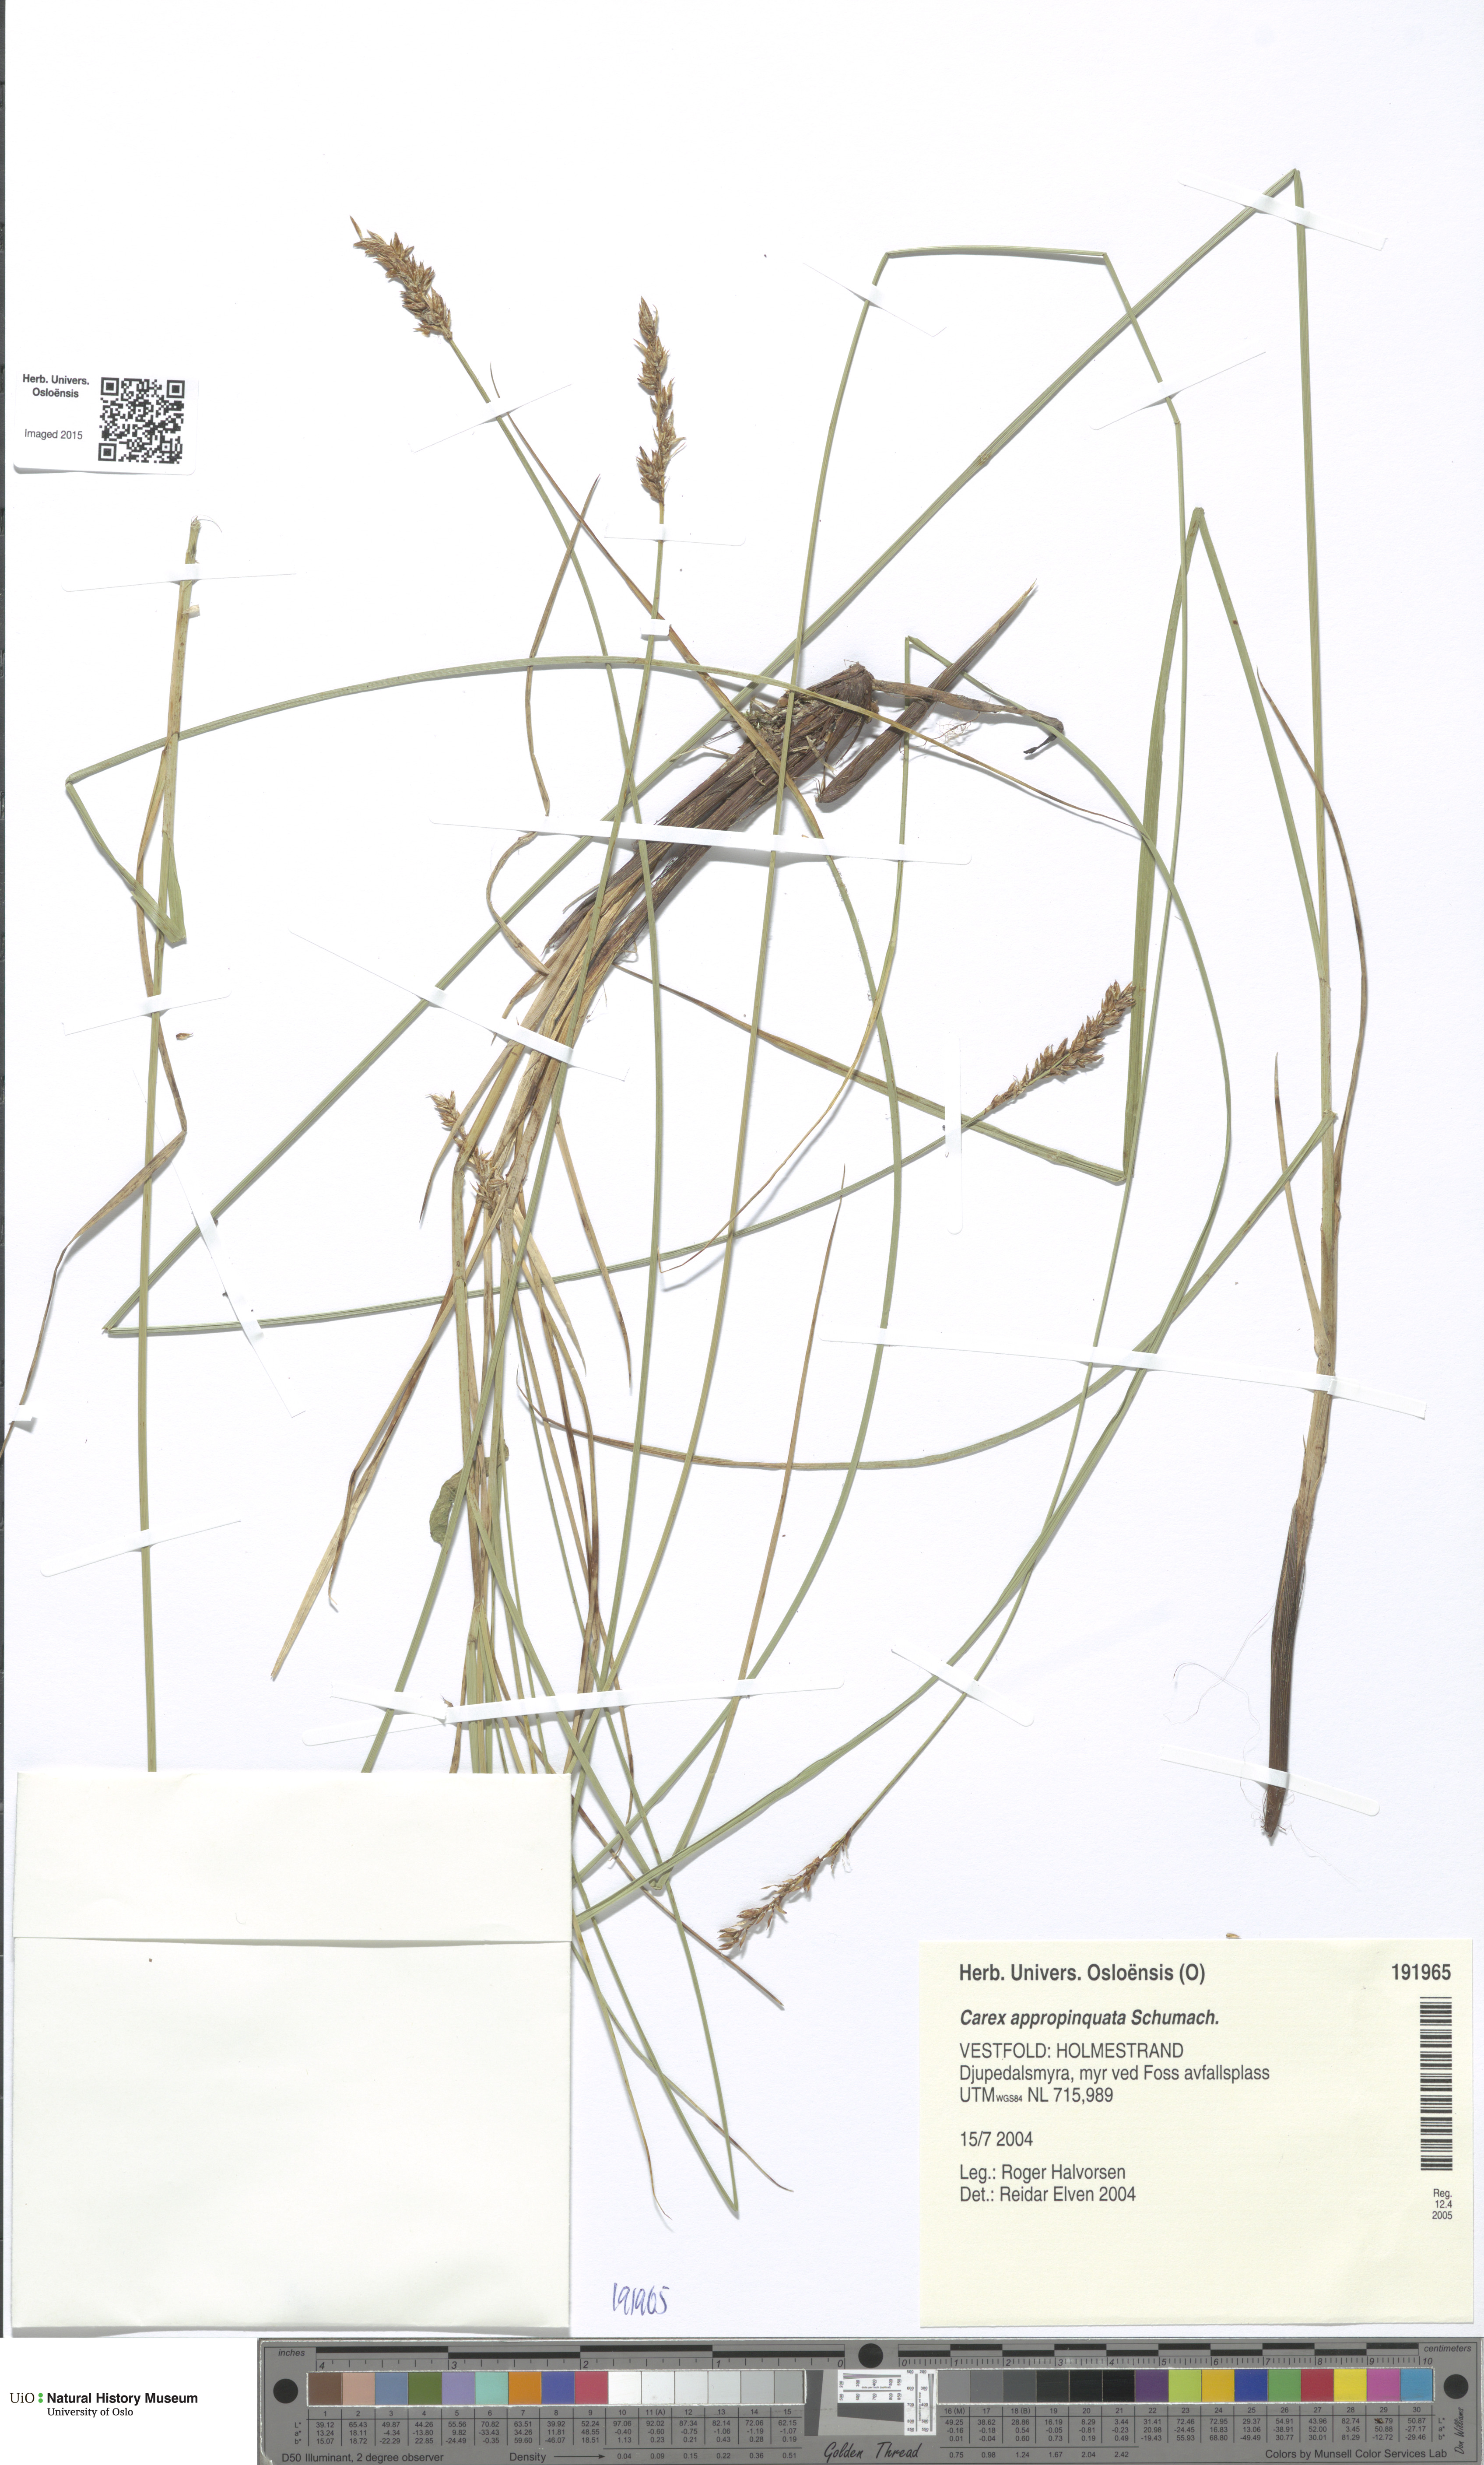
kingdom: Plantae
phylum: Tracheophyta
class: Liliopsida
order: Poales
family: Cyperaceae
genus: Carex
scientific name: Carex appropinquata
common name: Fibrous tussock-sedge
